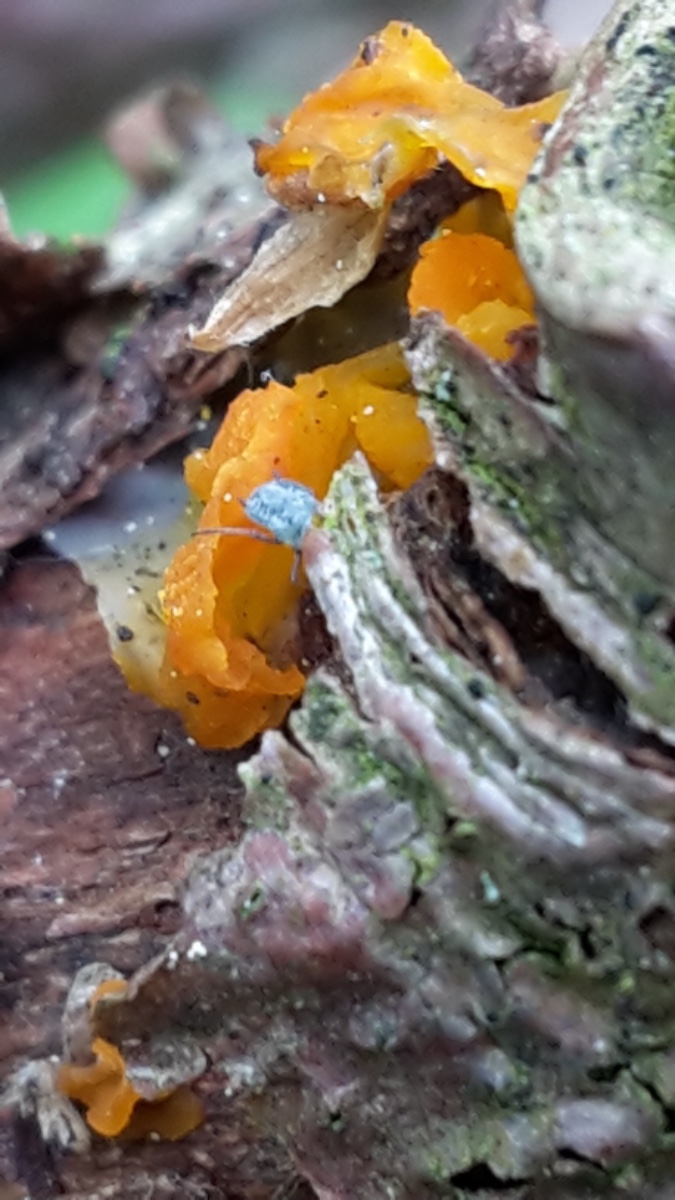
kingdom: Fungi
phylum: Basidiomycota
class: Tremellomycetes
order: Tremellales
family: Tremellaceae
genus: Tremella
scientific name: Tremella mesenterica
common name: gul bævresvamp
